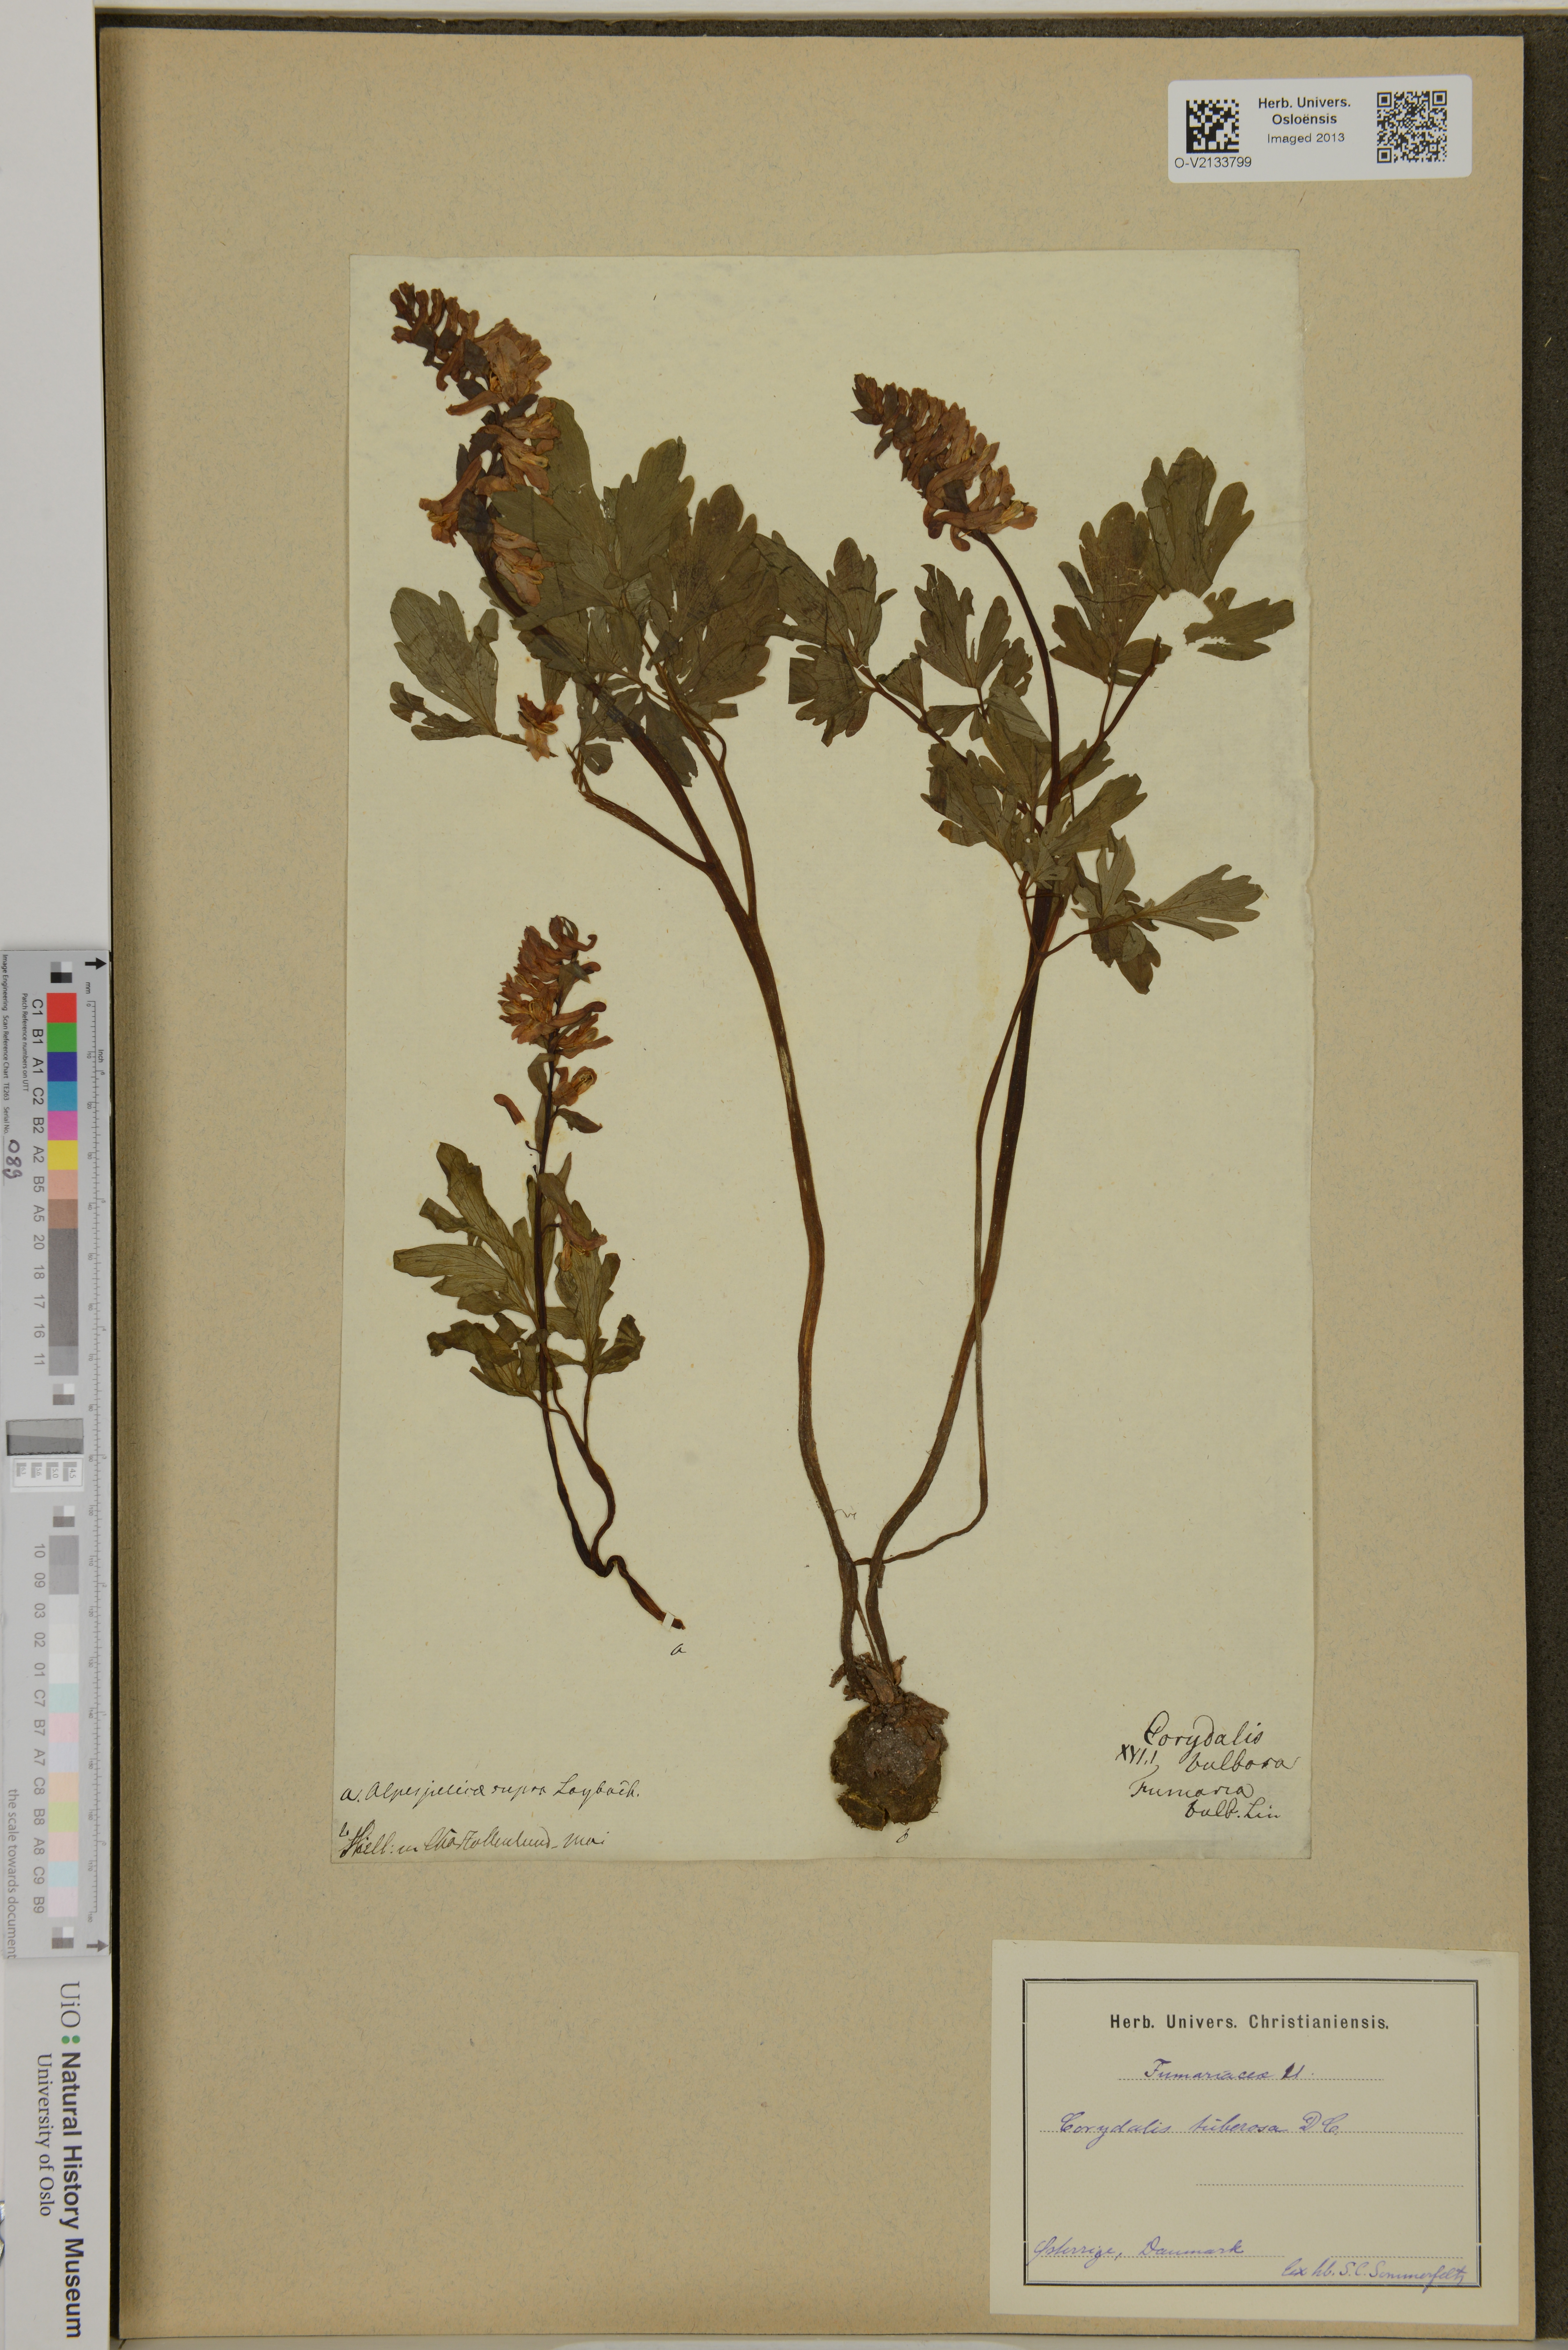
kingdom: Plantae
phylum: Tracheophyta
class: Magnoliopsida
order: Ranunculales
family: Papaveraceae
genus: Corydalis
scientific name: Corydalis cava
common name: Hollowroot
